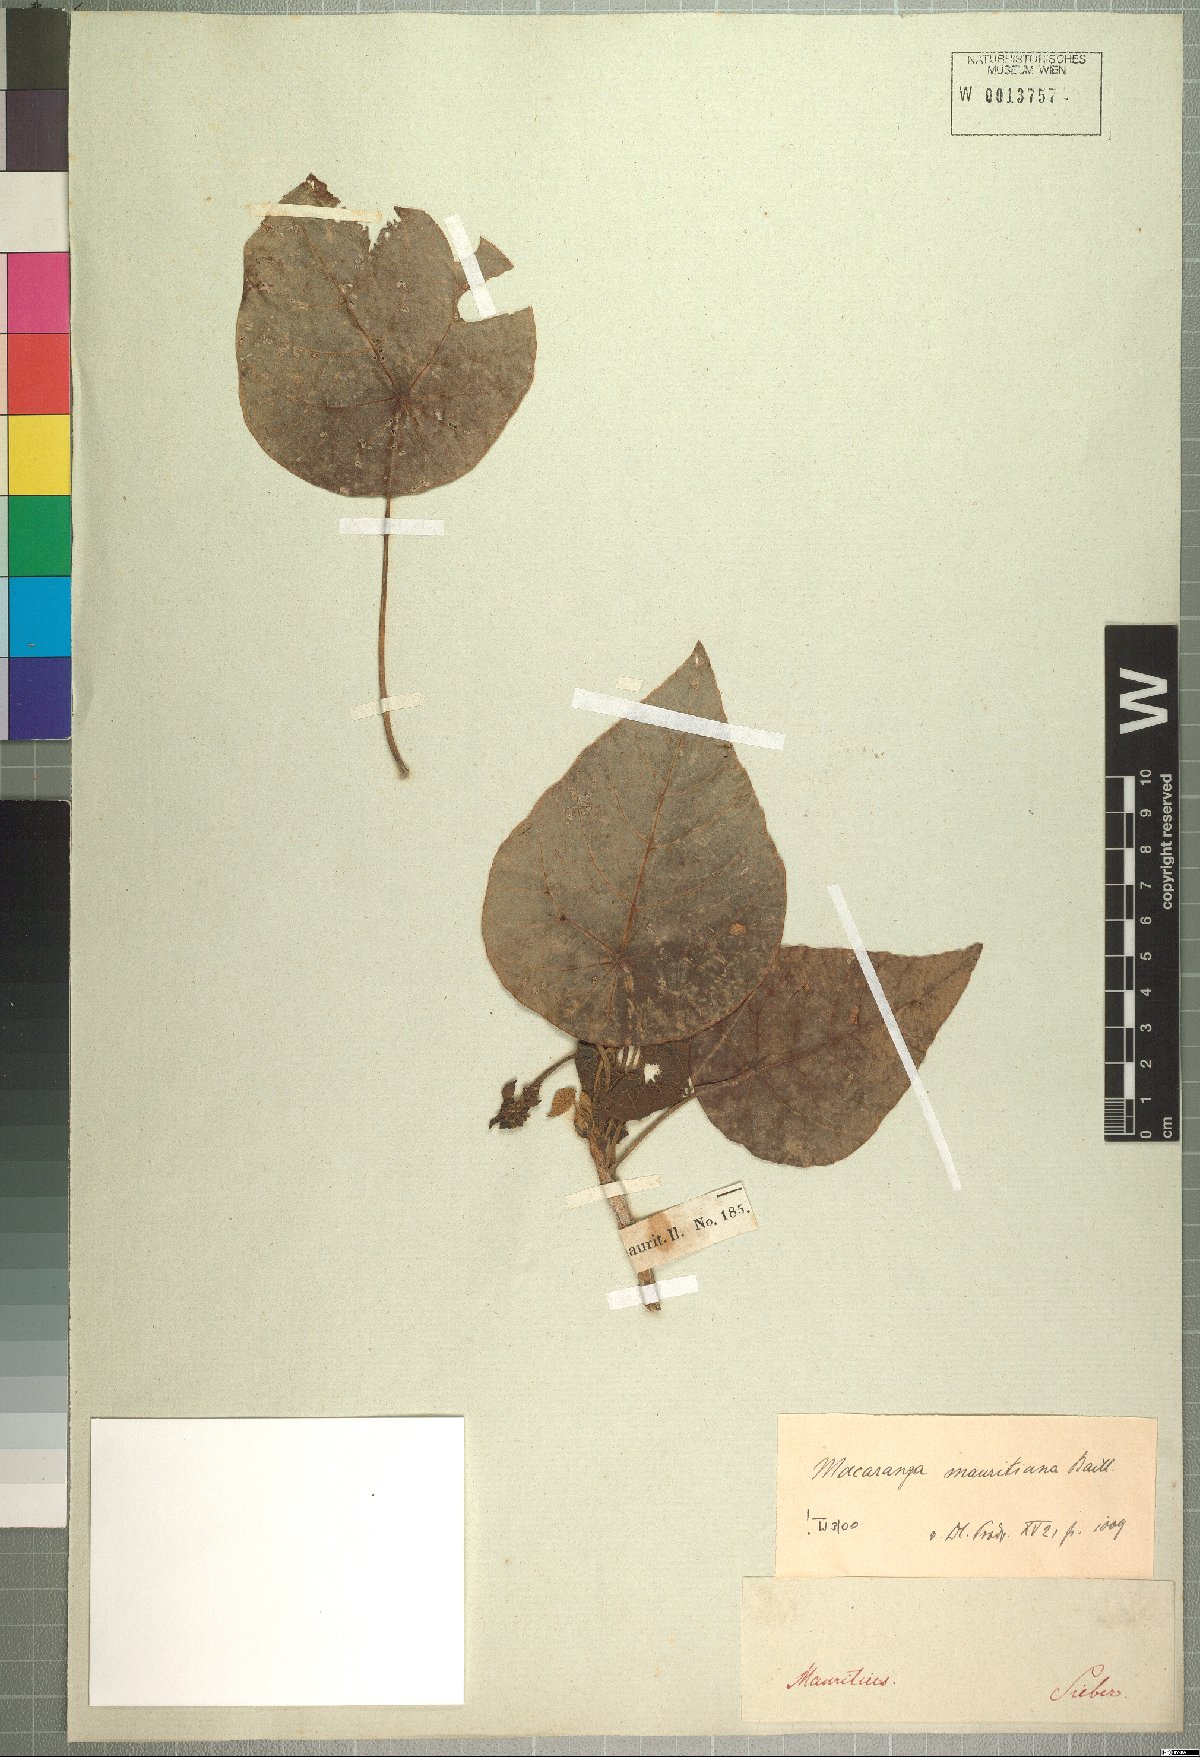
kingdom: Plantae
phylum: Tracheophyta
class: Magnoliopsida
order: Malpighiales
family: Euphorbiaceae
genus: Macaranga
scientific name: Macaranga mauritiana
